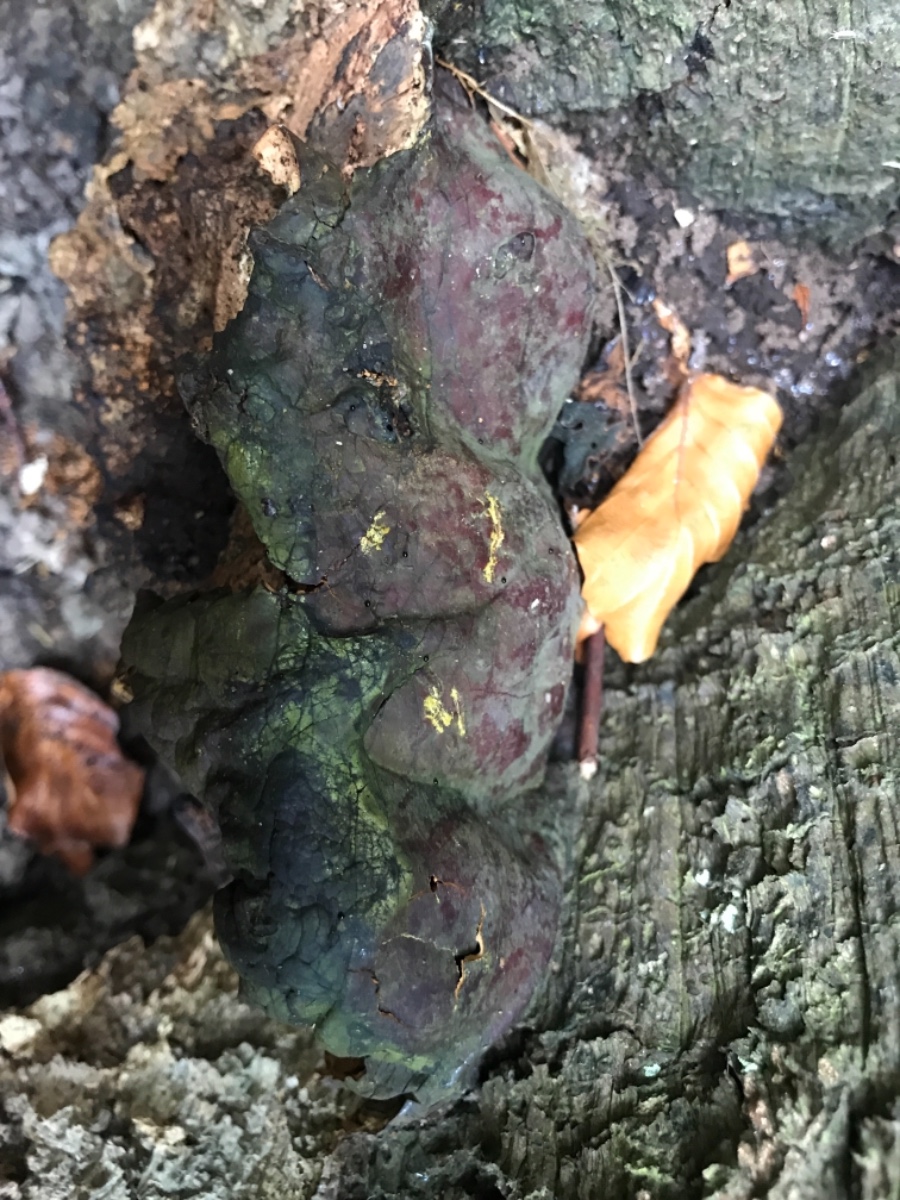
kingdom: Fungi
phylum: Basidiomycota
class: Agaricomycetes
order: Polyporales
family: Polyporaceae
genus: Ganoderma
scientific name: Ganoderma pfeifferi
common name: kobberrød lakporesvamp
